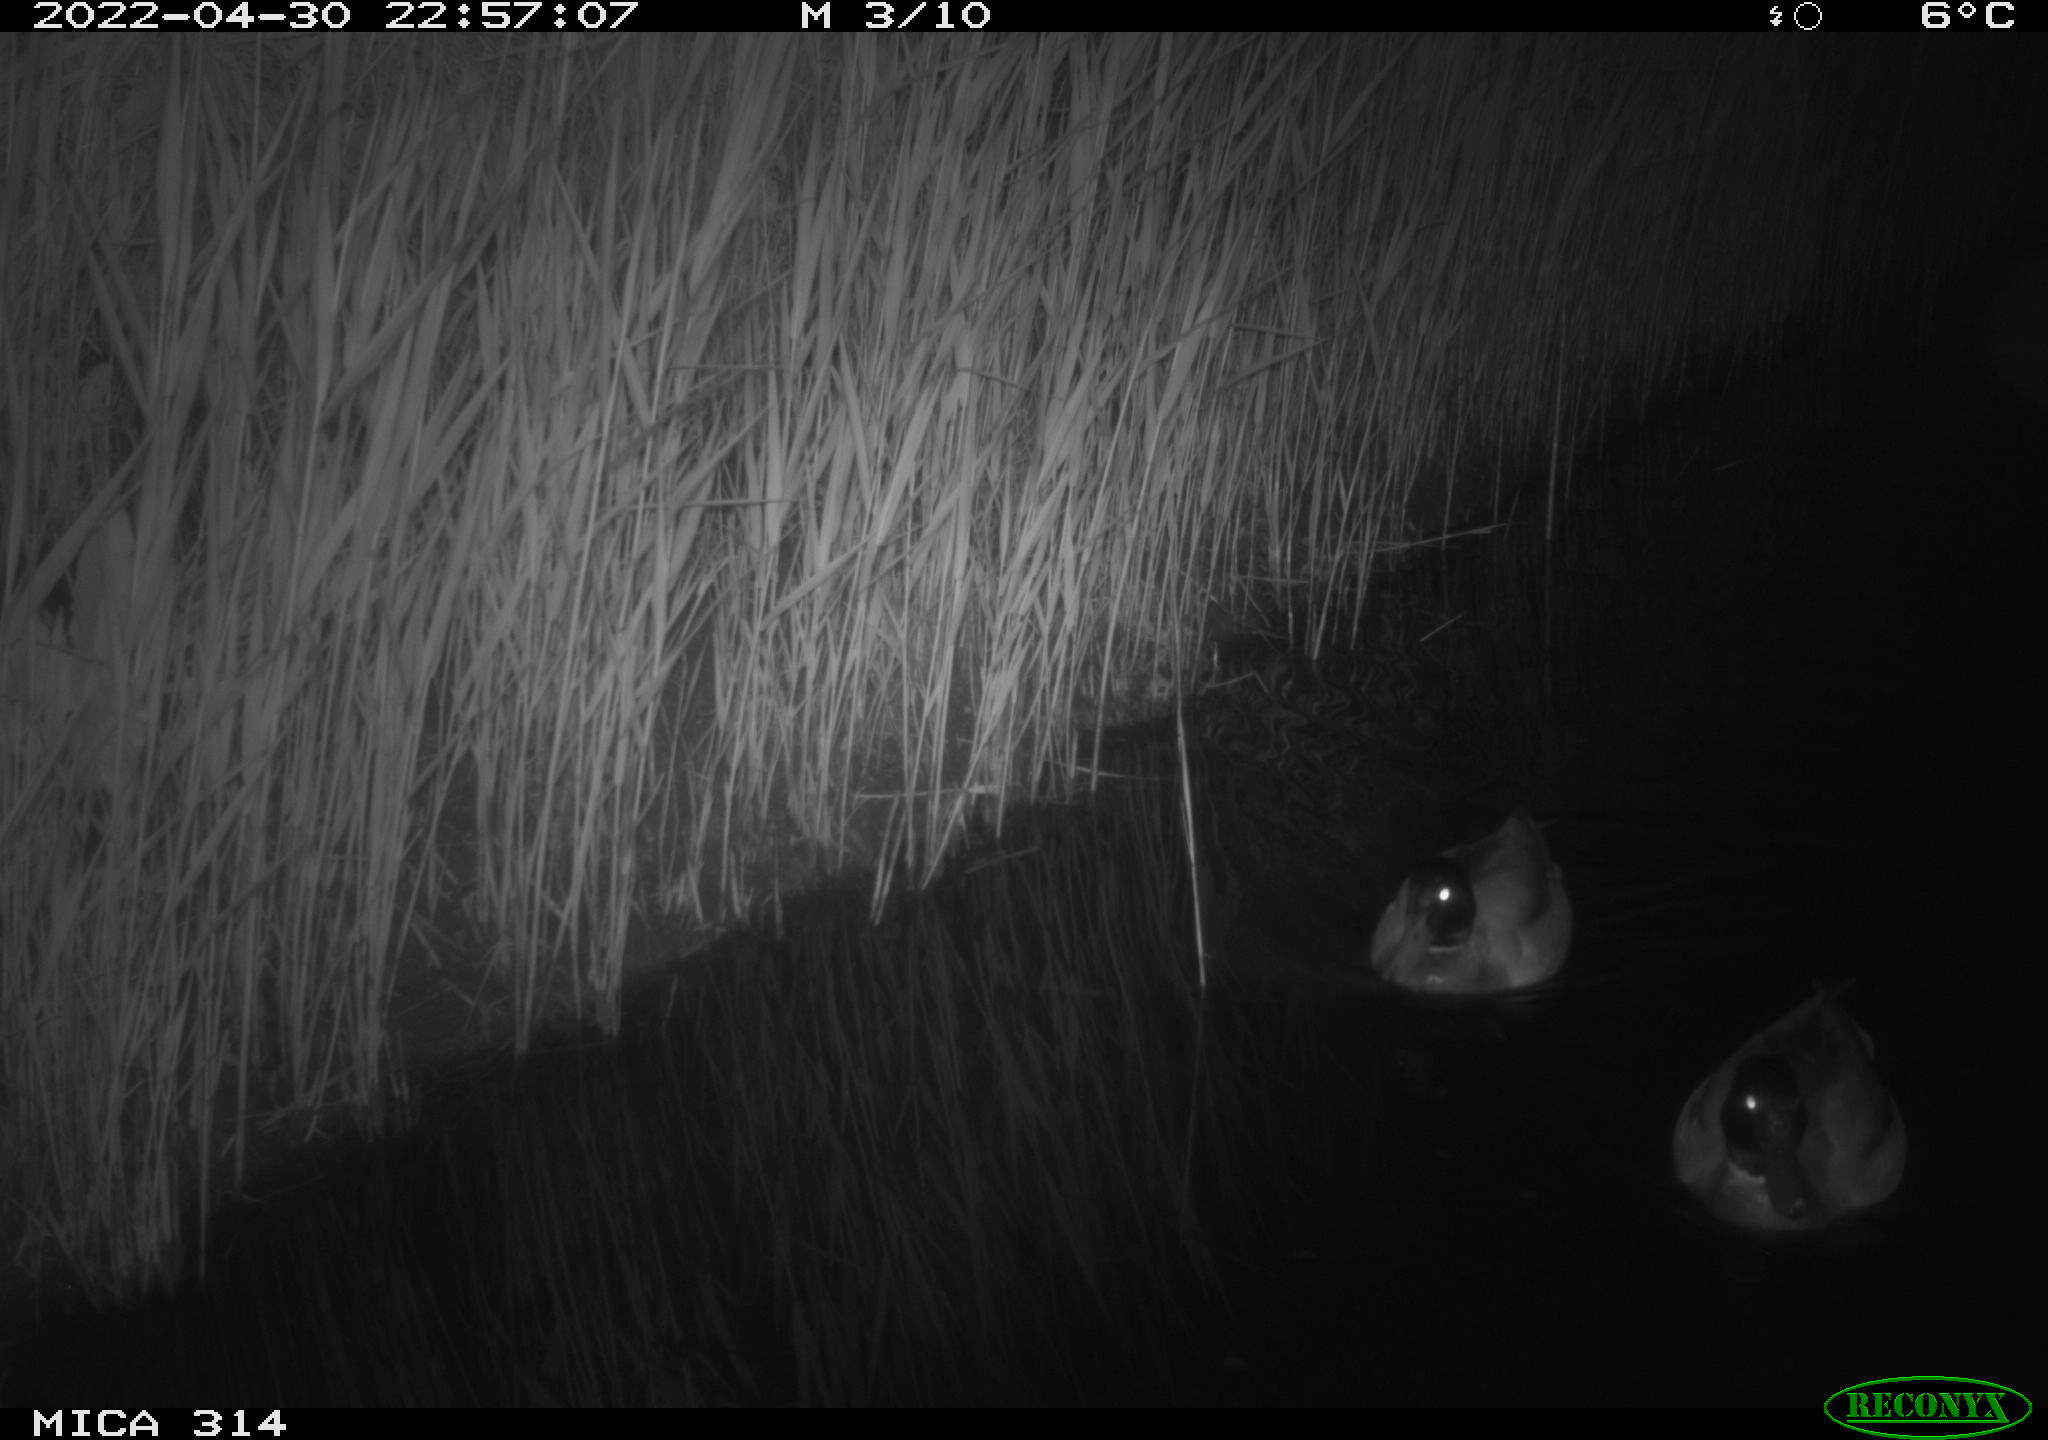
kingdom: Animalia
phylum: Chordata
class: Aves
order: Anseriformes
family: Anatidae
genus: Anas
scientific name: Anas platyrhynchos
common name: Mallard
